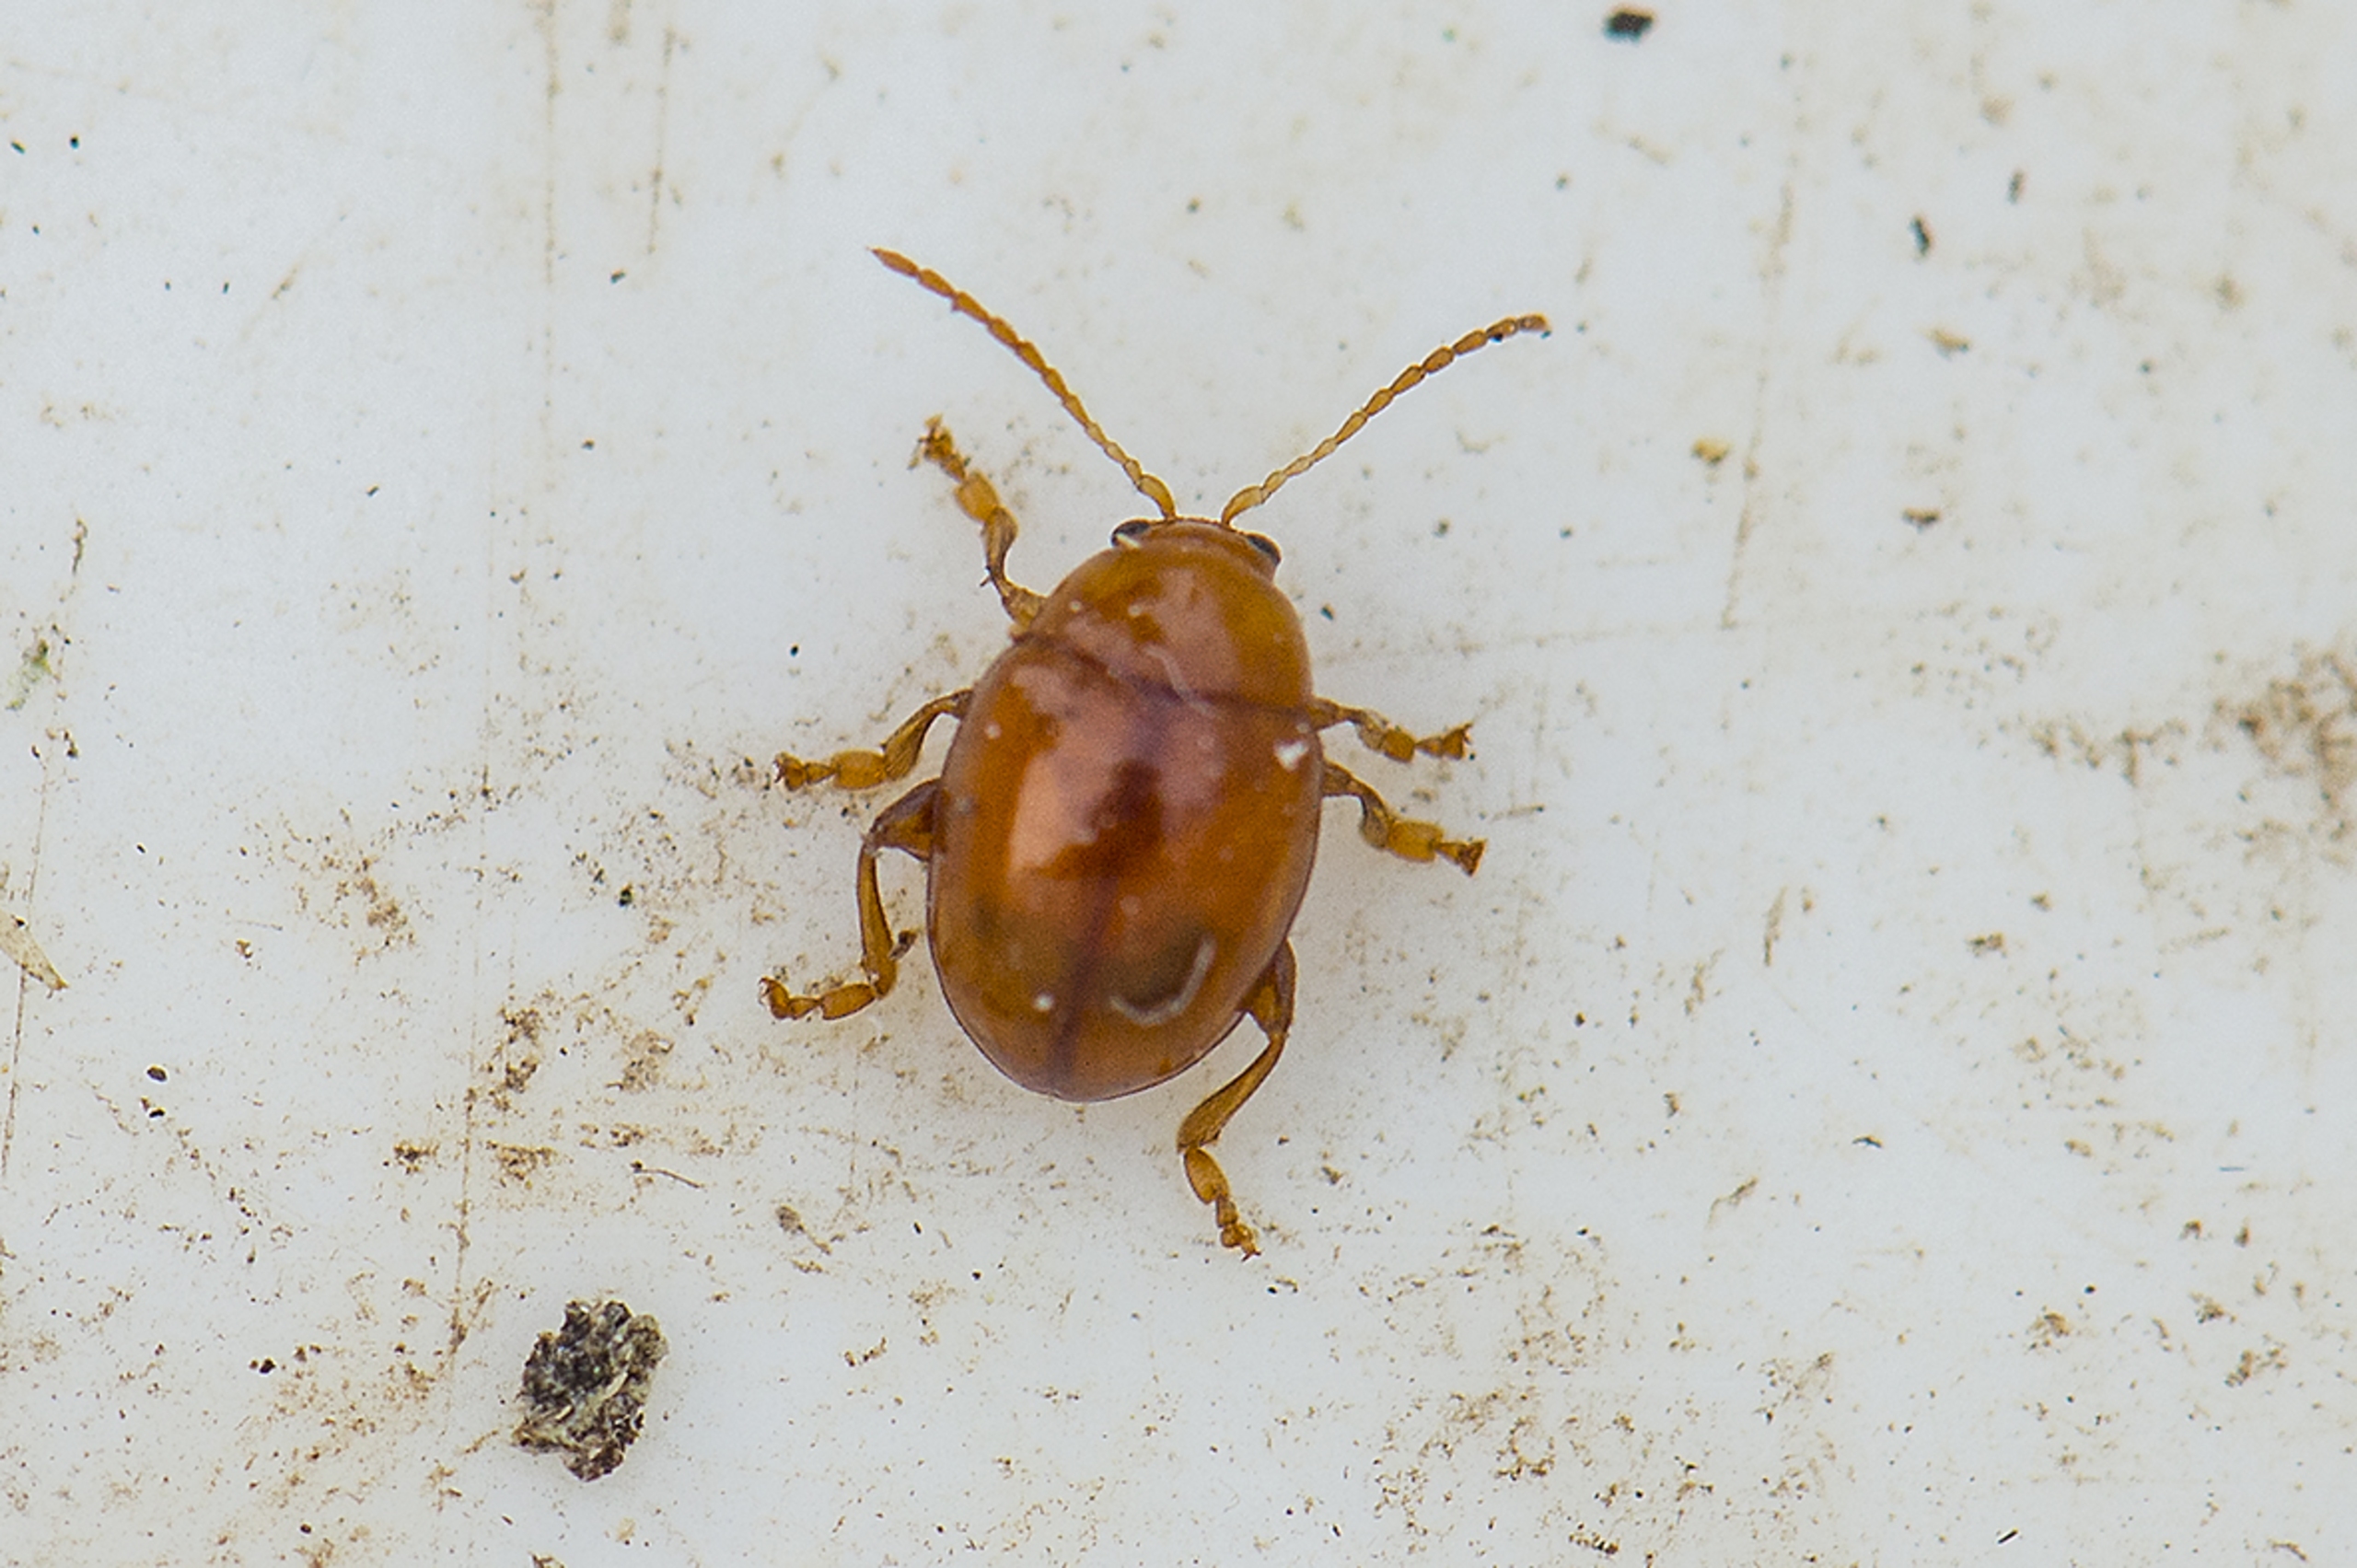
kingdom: Animalia
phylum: Arthropoda
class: Insecta
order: Coleoptera
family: Chrysomelidae
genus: Pistosia
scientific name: Pistosia testacea
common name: Tidselkuglebille
